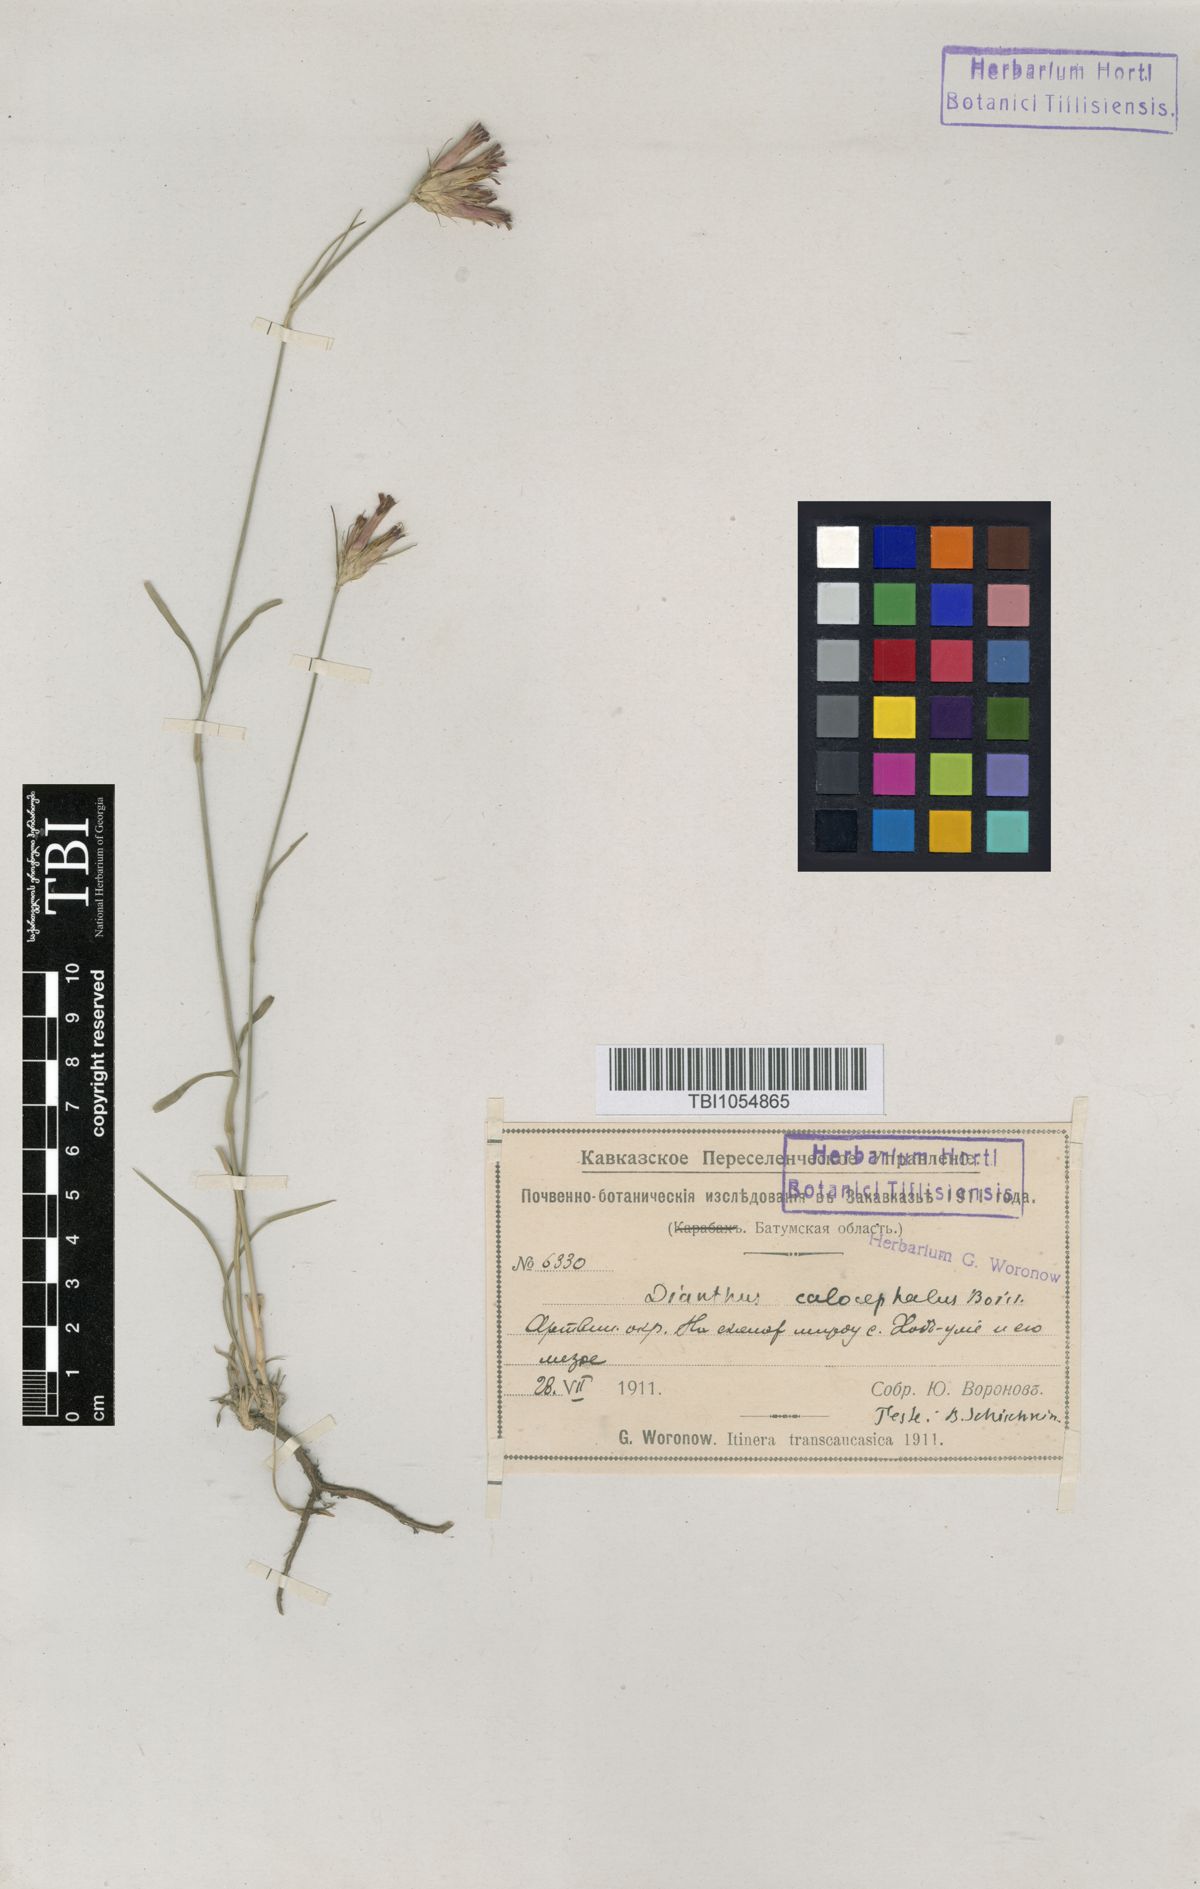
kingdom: Plantae
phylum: Tracheophyta
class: Magnoliopsida
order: Caryophyllales
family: Caryophyllaceae
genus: Dianthus
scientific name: Dianthus cruentus
